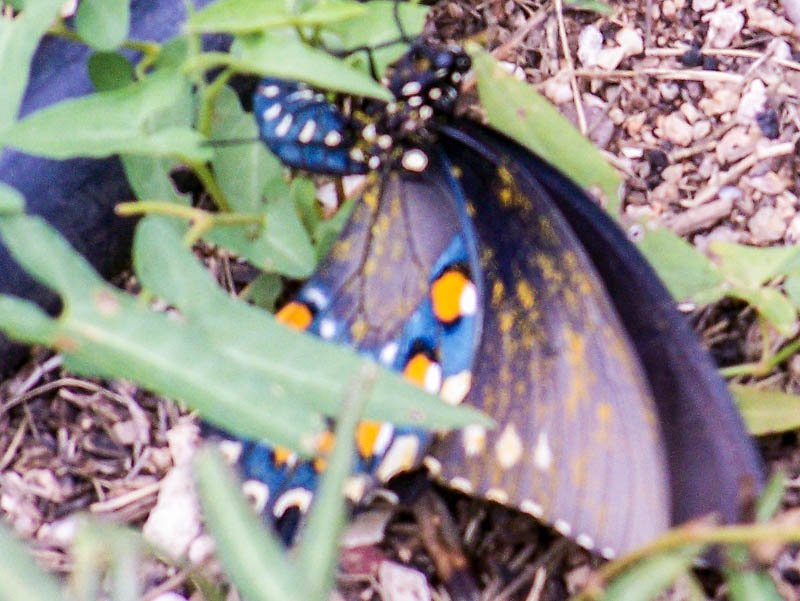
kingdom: Animalia
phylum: Arthropoda
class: Insecta
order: Lepidoptera
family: Papilionidae
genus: Battus
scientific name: Battus philenor
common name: Pipevine Swallowtail
